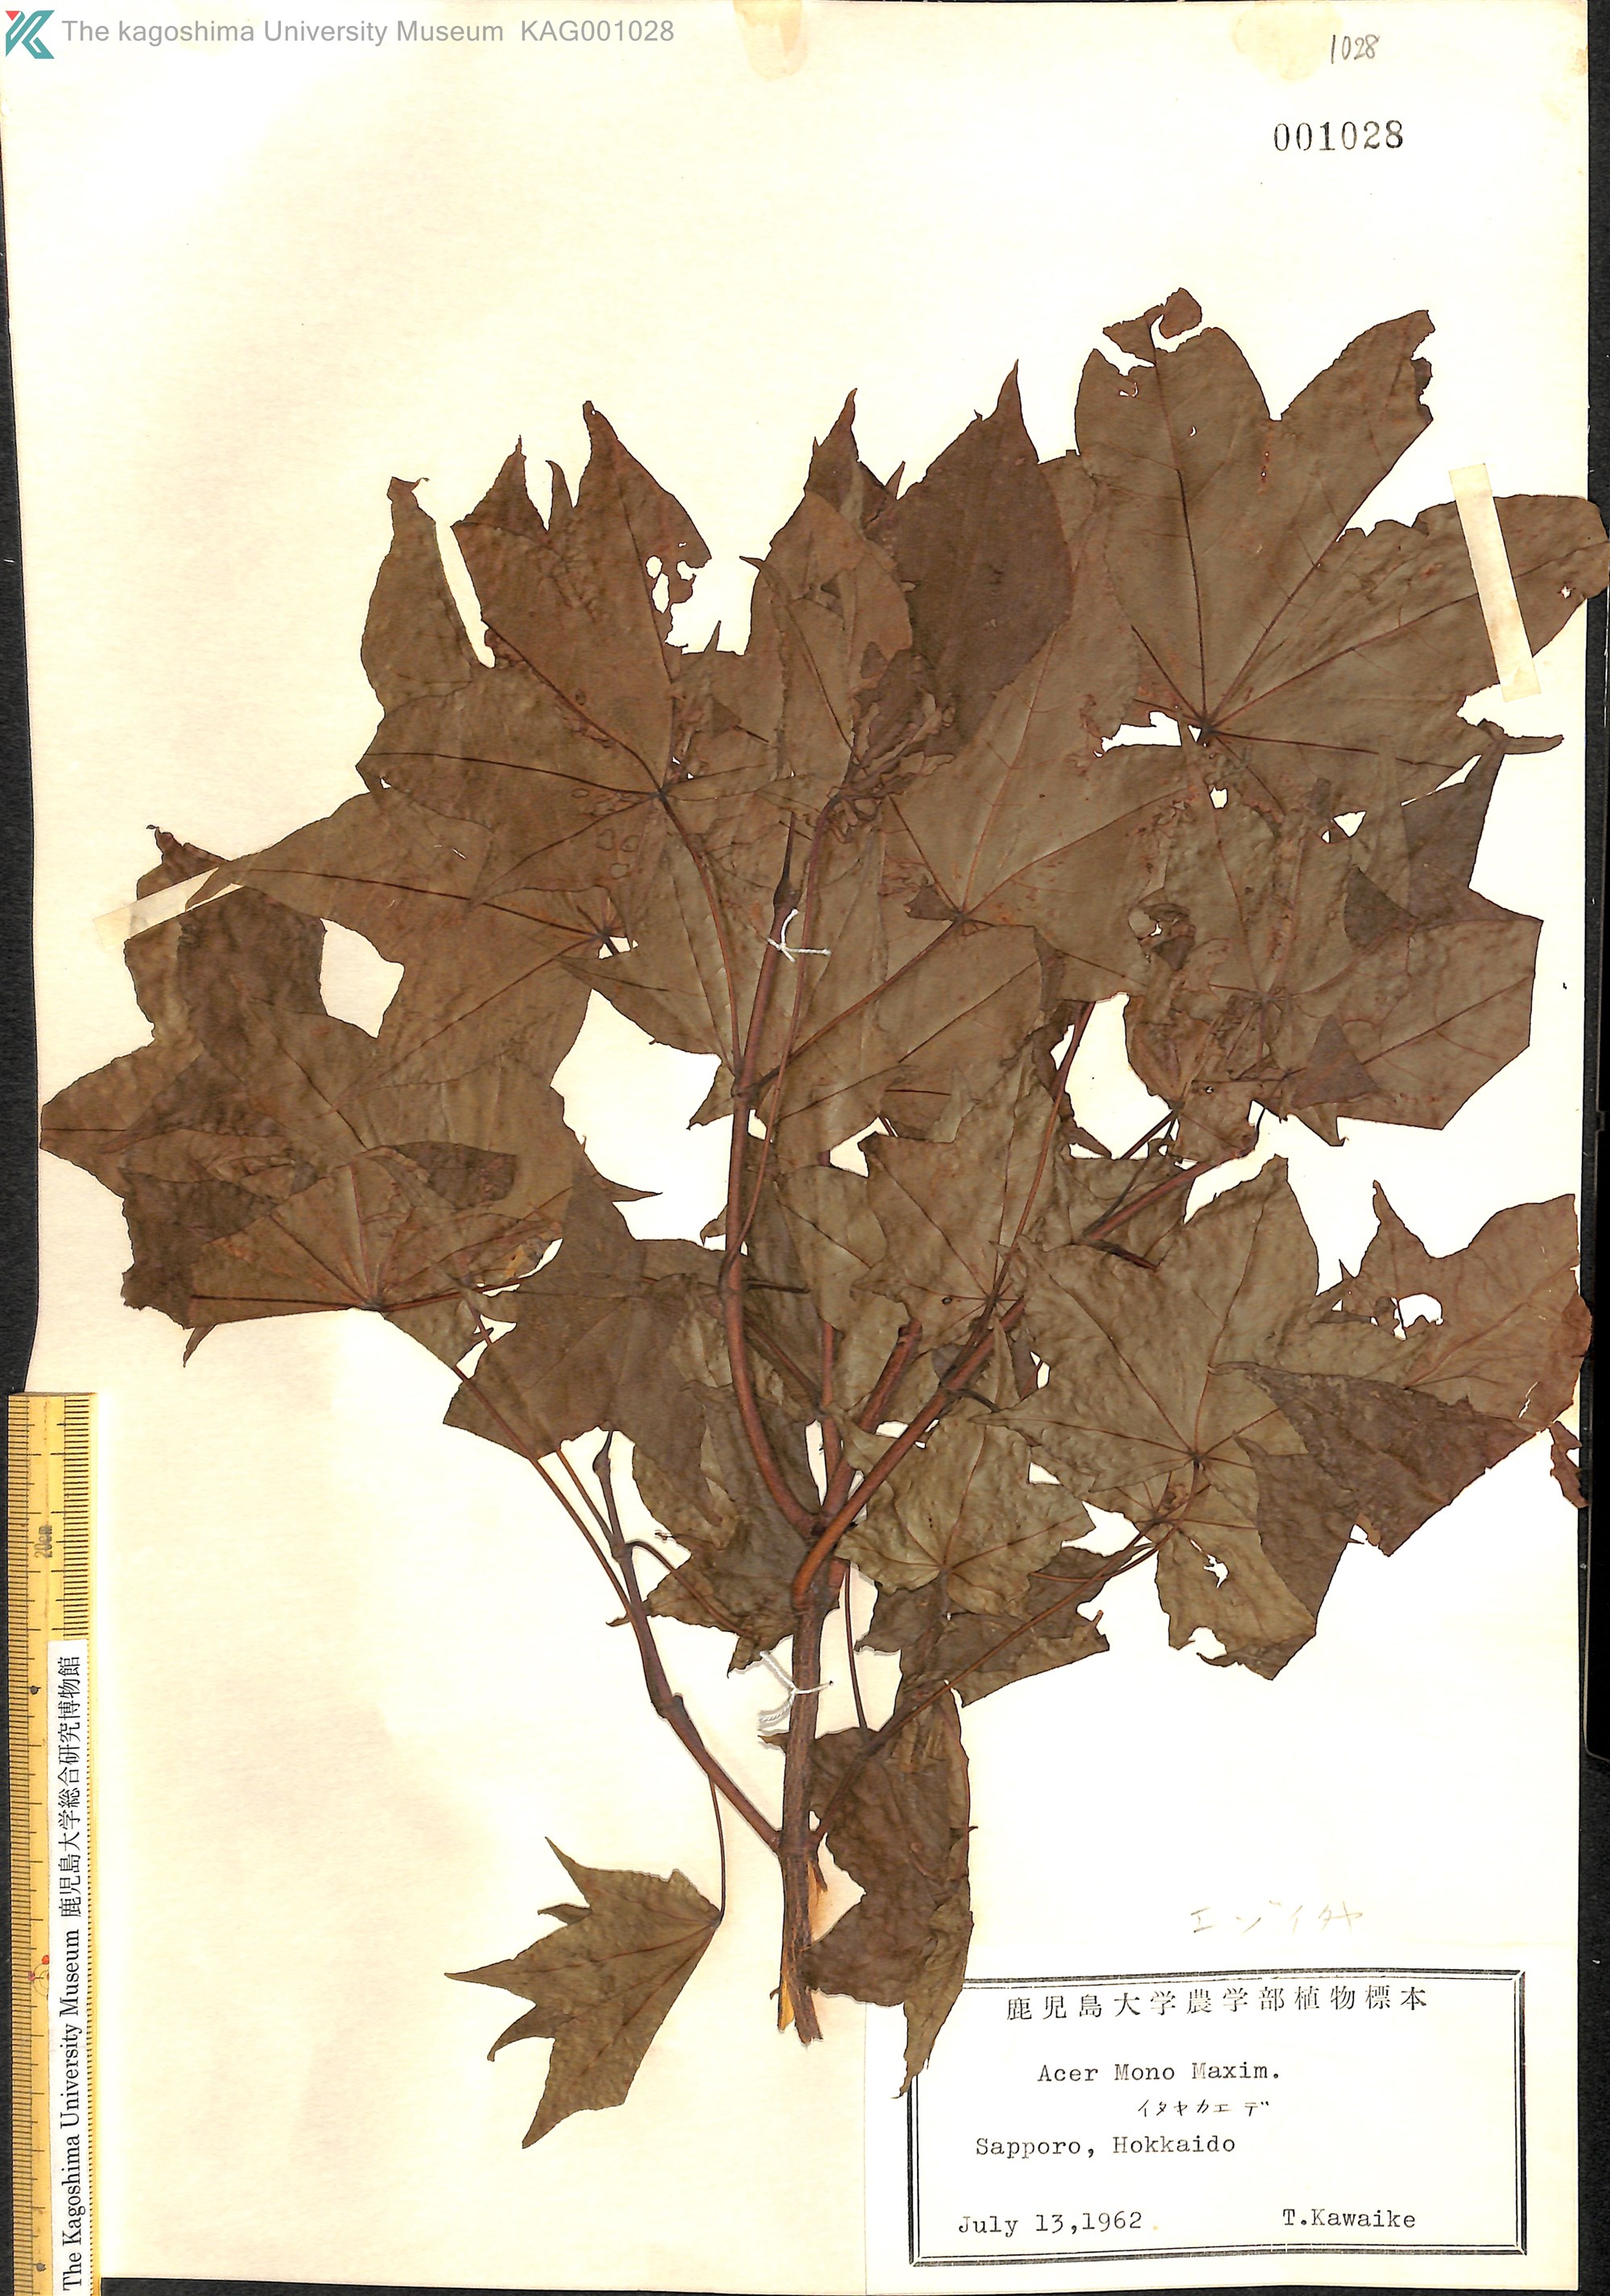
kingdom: Plantae
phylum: Tracheophyta
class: Magnoliopsida
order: Sapindales
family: Sapindaceae
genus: Acer
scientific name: Acer pictum
